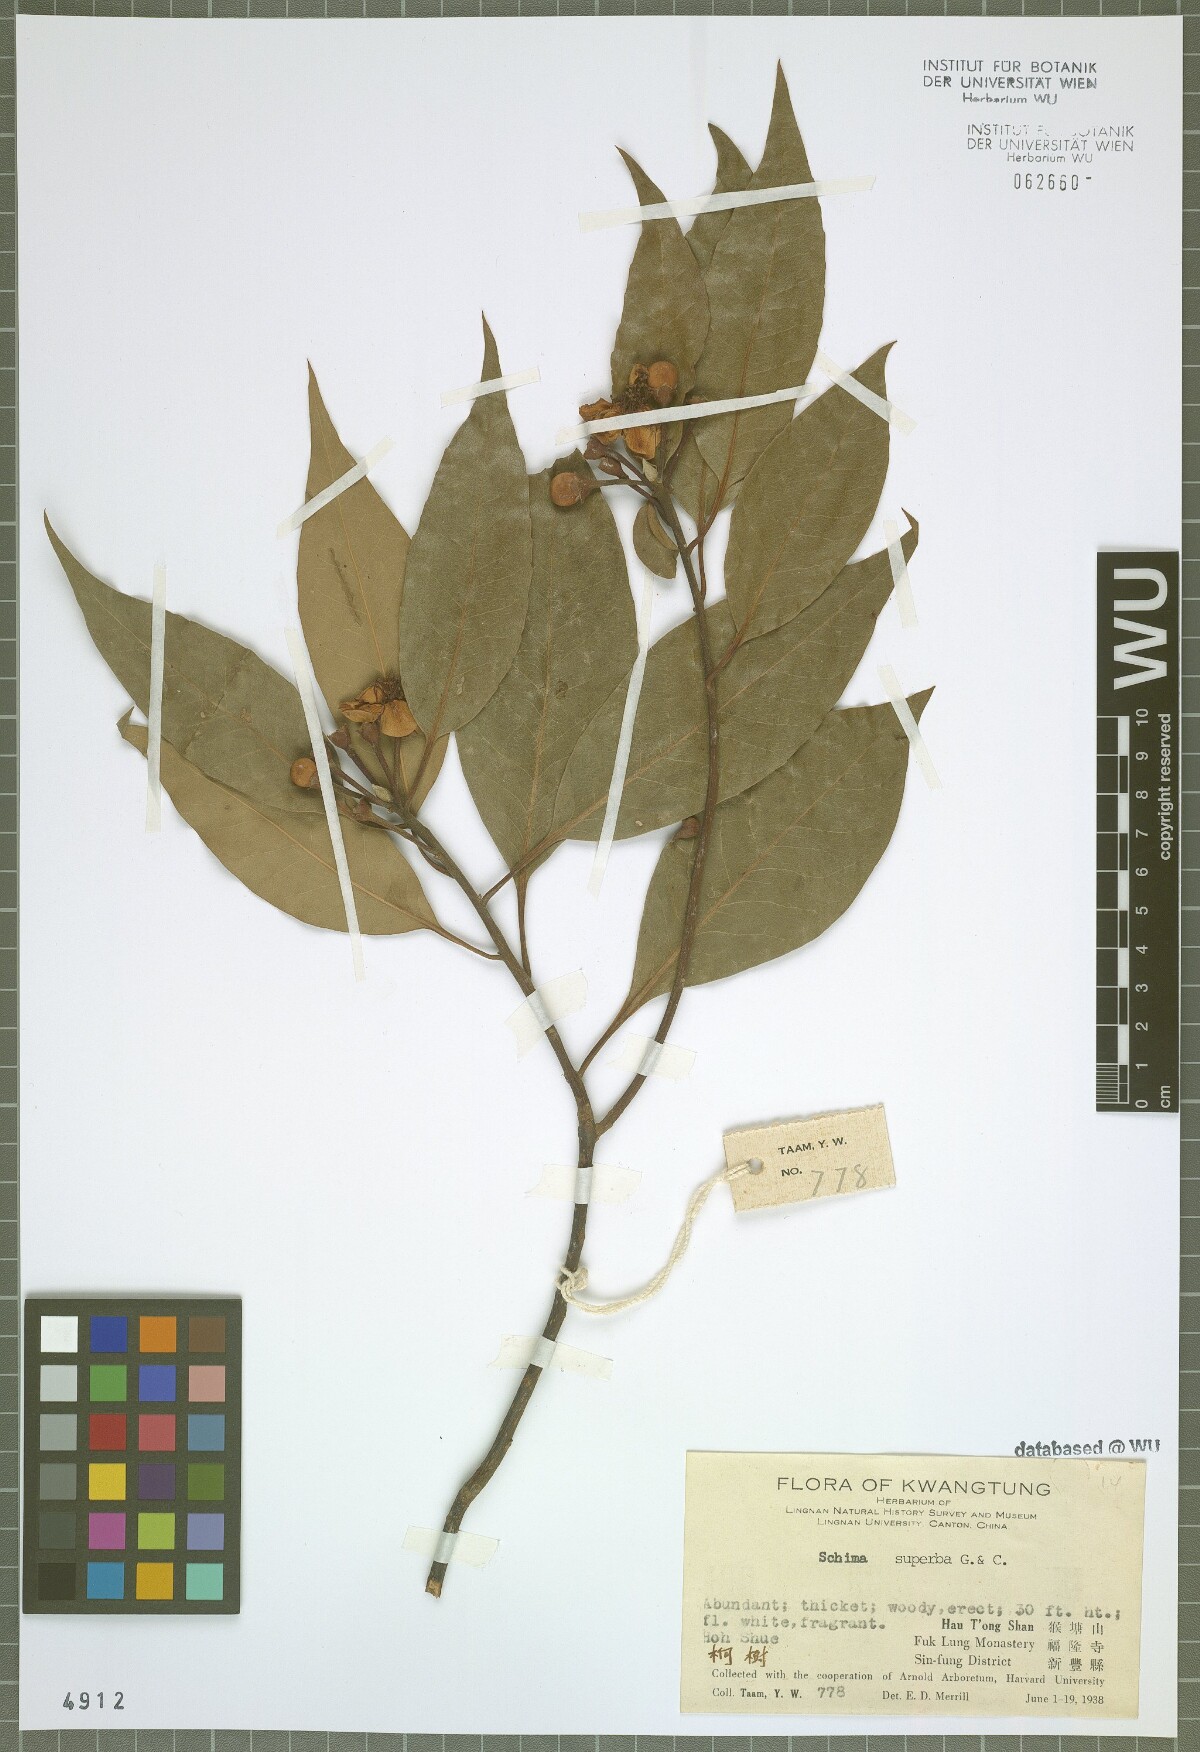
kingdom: Plantae
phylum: Tracheophyta
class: Magnoliopsida
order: Ericales
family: Theaceae
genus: Schima
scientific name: Schima superba
